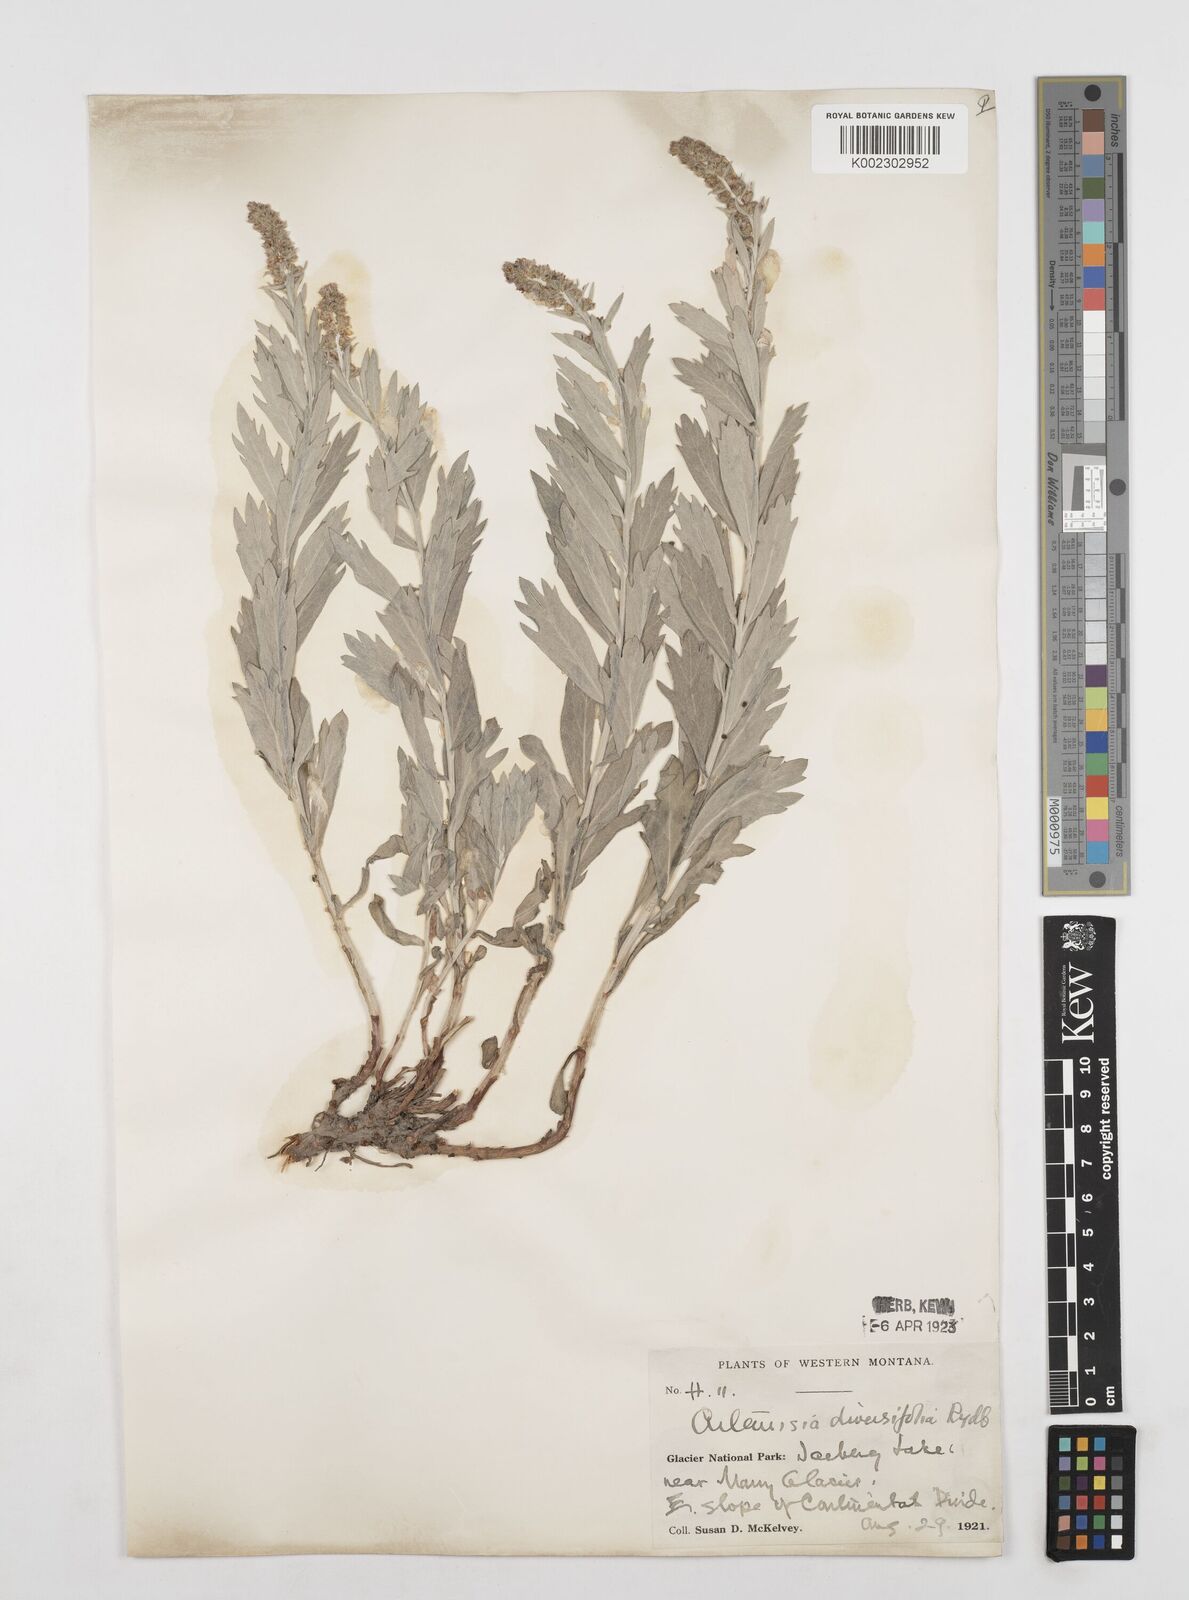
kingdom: Plantae
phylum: Tracheophyta
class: Magnoliopsida
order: Asterales
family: Asteraceae
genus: Artemisia
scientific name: Artemisia ludoviciana
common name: Western mugwort
